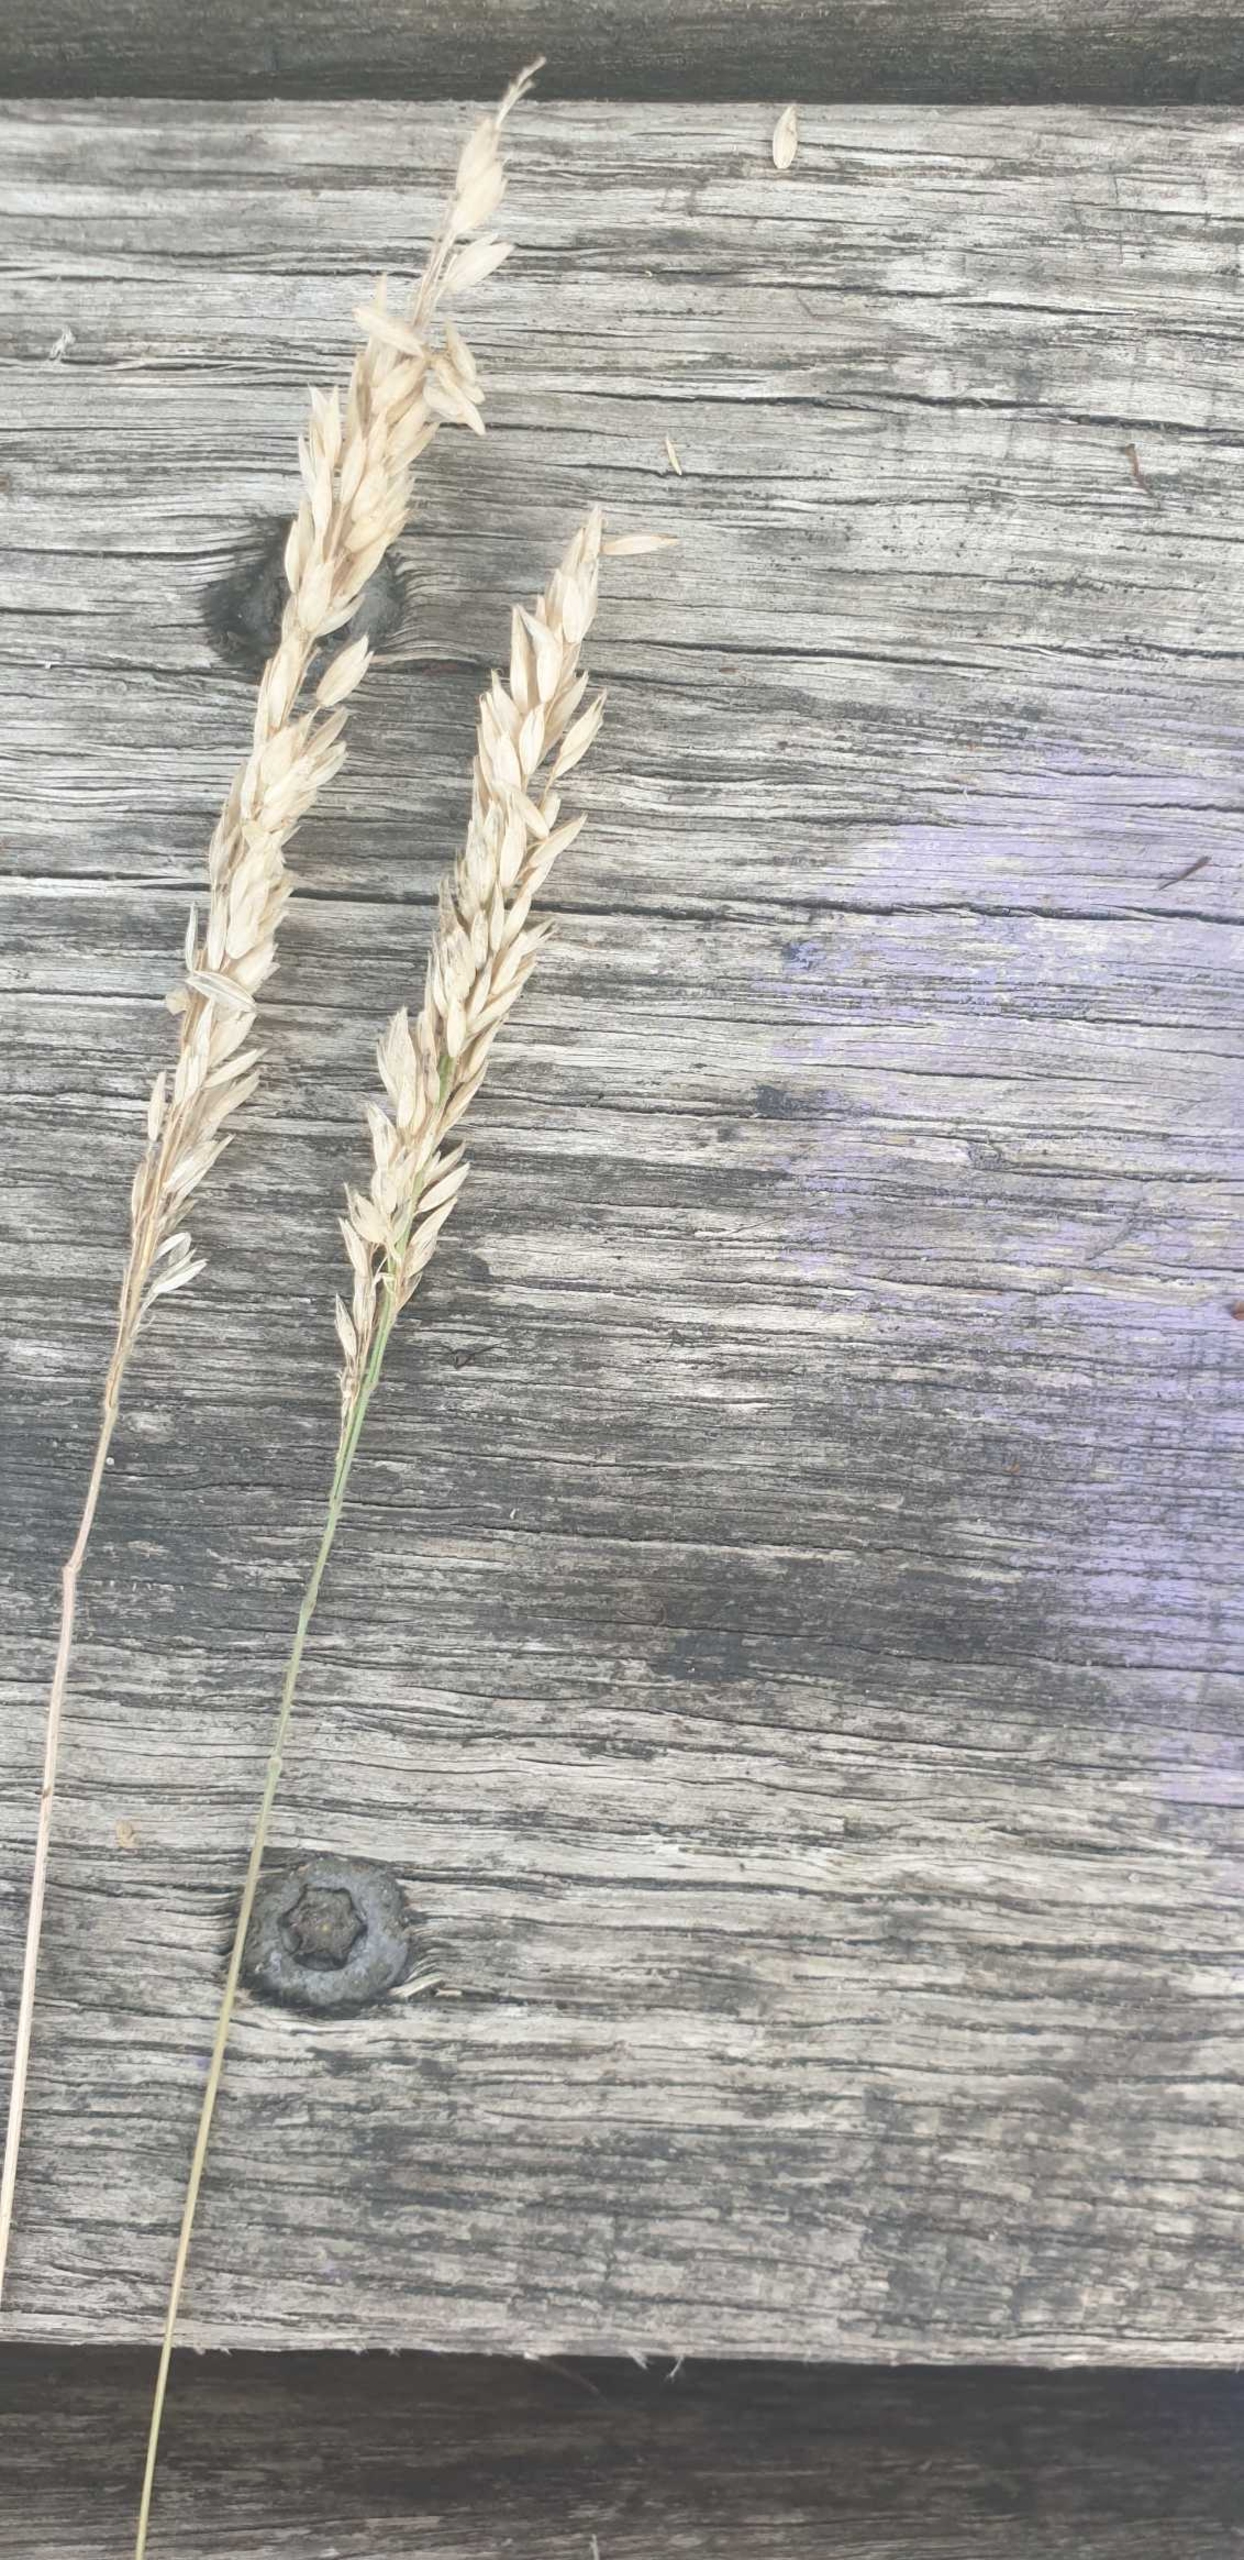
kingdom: Plantae
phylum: Tracheophyta
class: Liliopsida
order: Poales
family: Poaceae
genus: Holcus
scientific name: Holcus lanatus
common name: Fløjlsgræs
